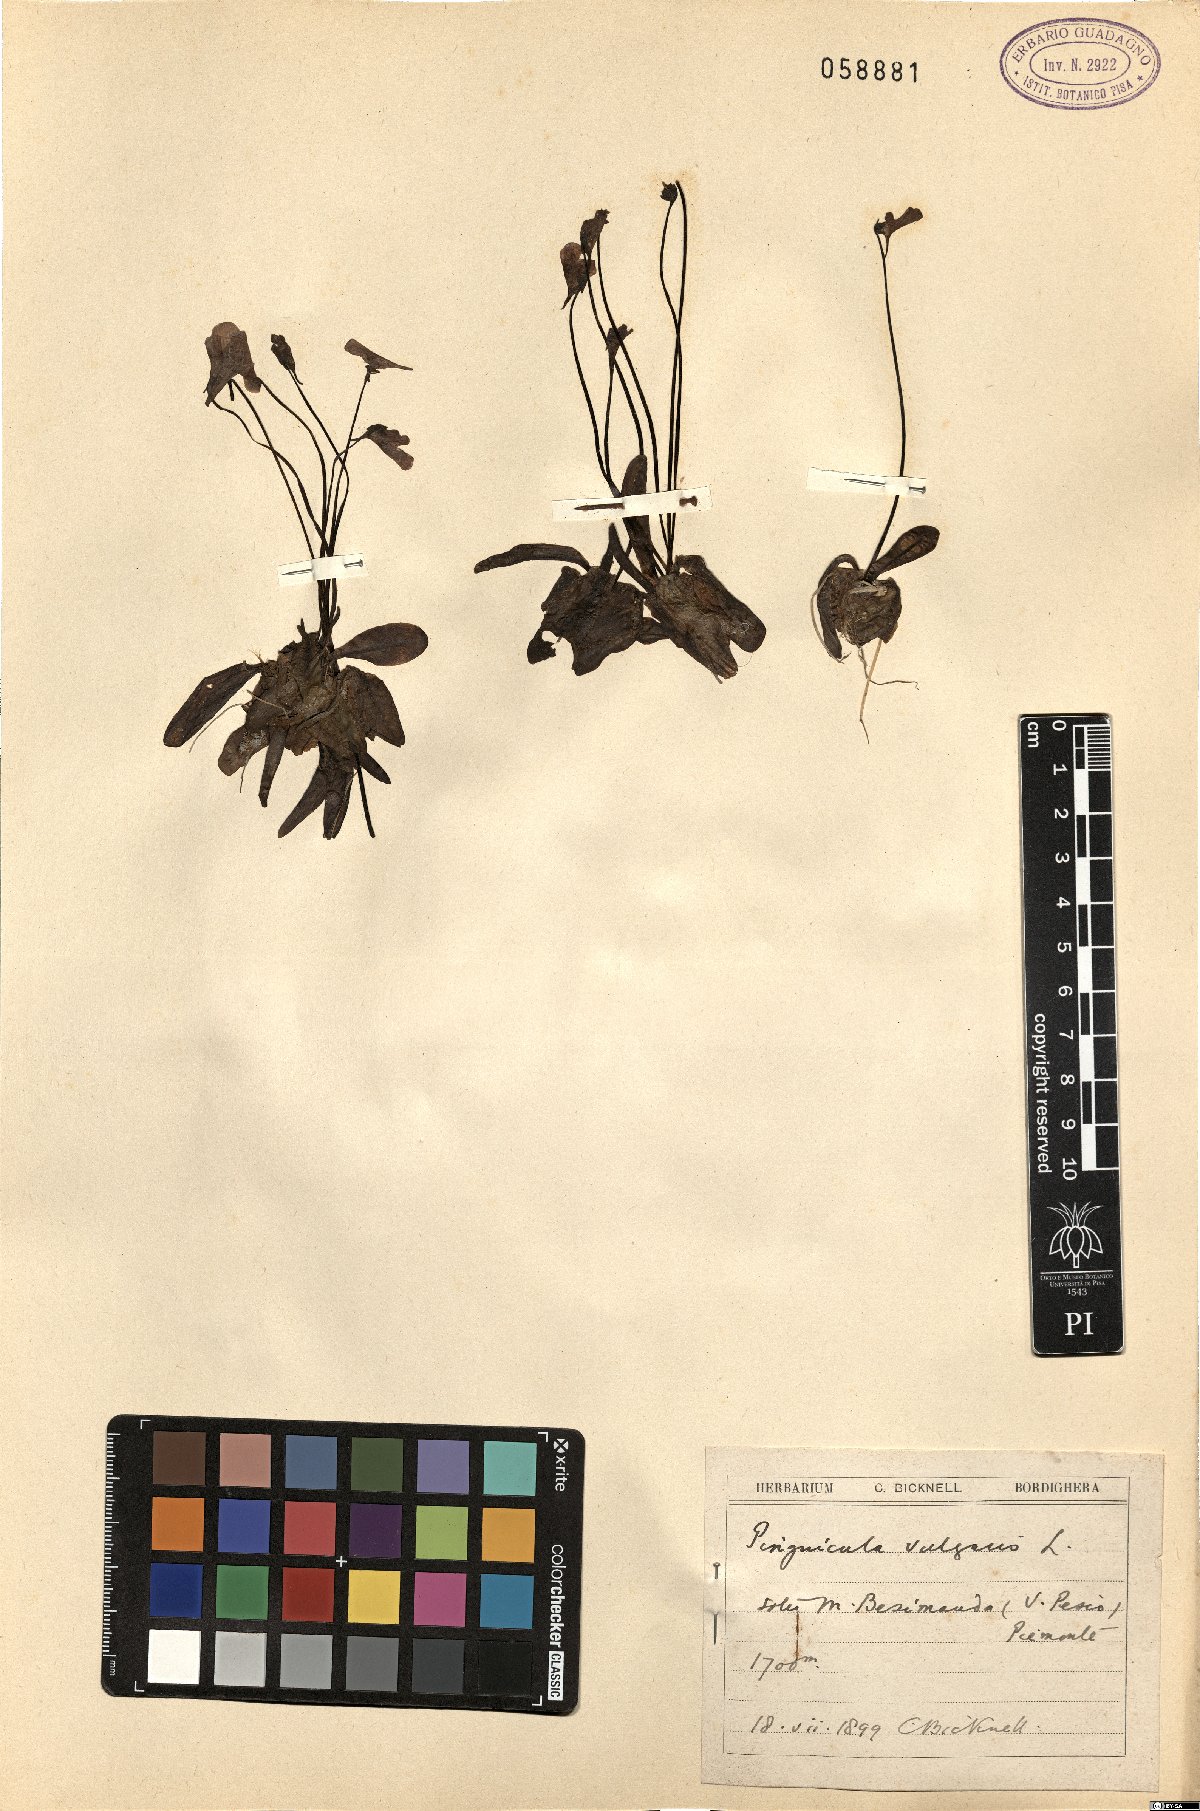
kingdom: Plantae
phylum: Tracheophyta
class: Magnoliopsida
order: Lamiales
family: Lentibulariaceae
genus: Pinguicula
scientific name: Pinguicula vulgaris
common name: Common butterwort
